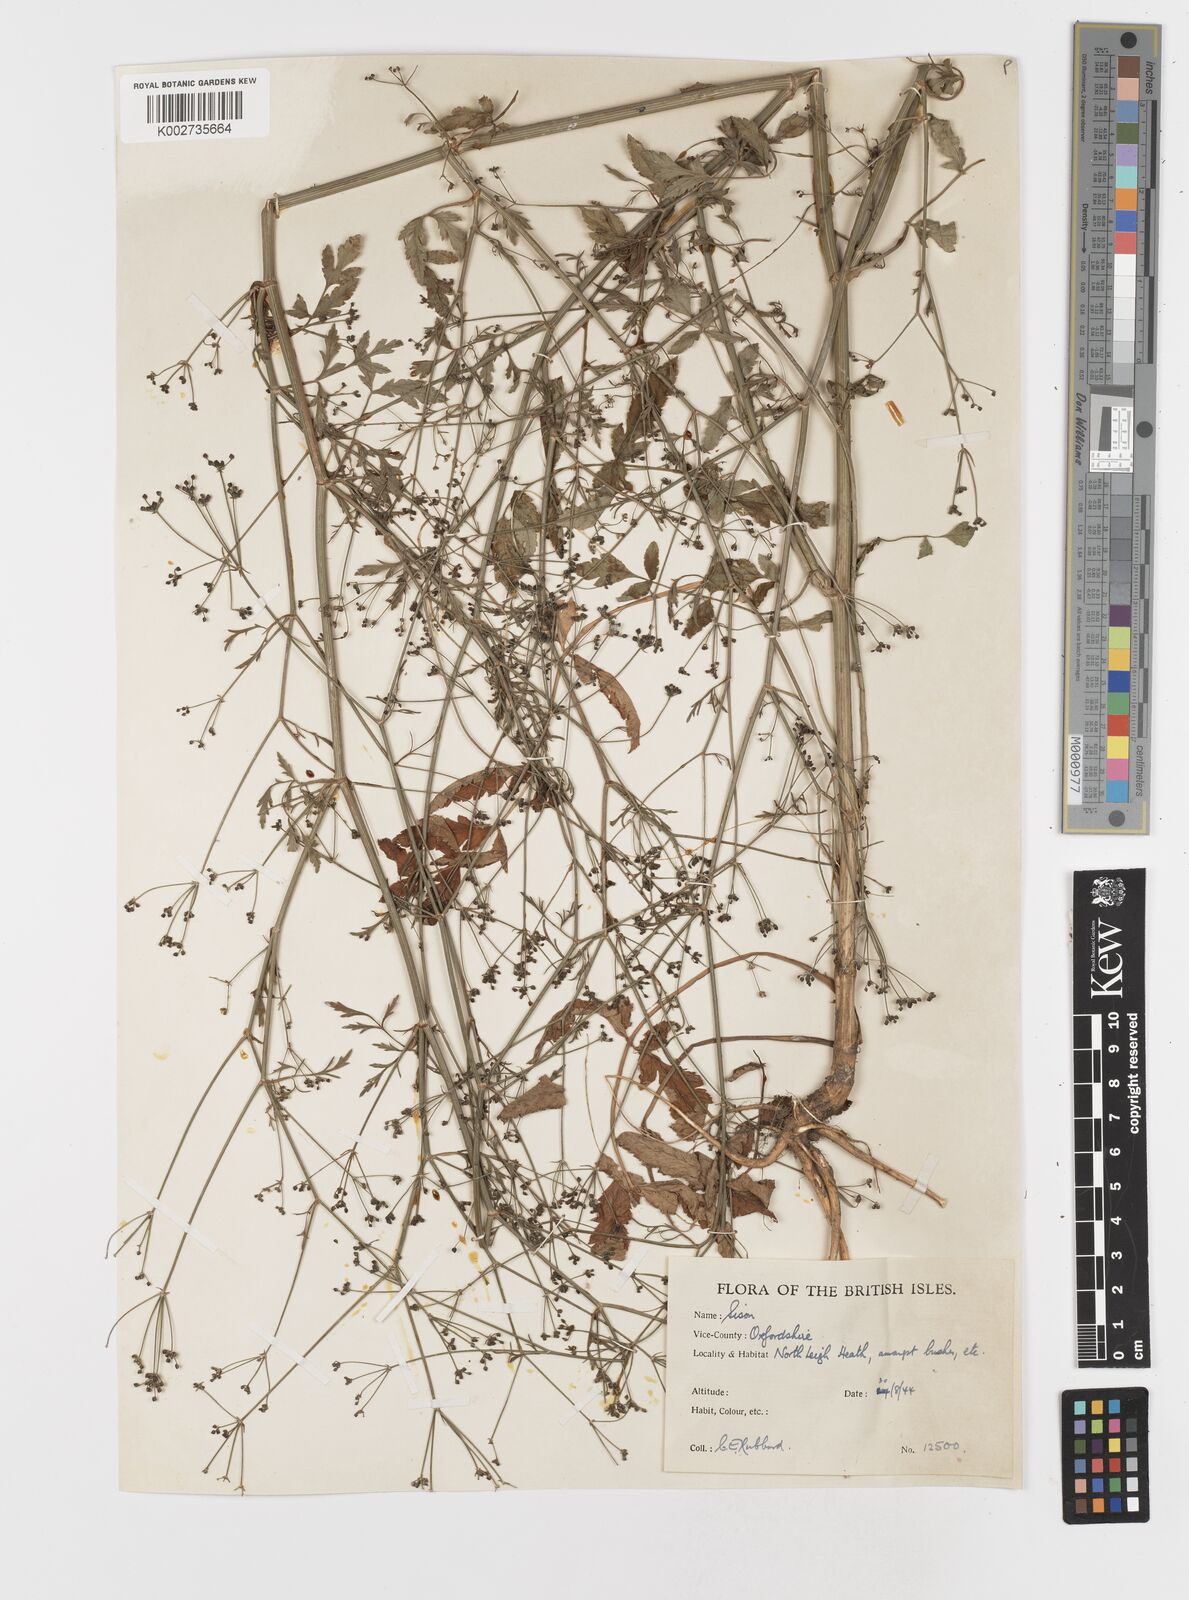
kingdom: Plantae
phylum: Tracheophyta
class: Magnoliopsida
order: Apiales
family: Apiaceae
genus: Sison
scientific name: Sison amomum
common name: Stone-parsley
